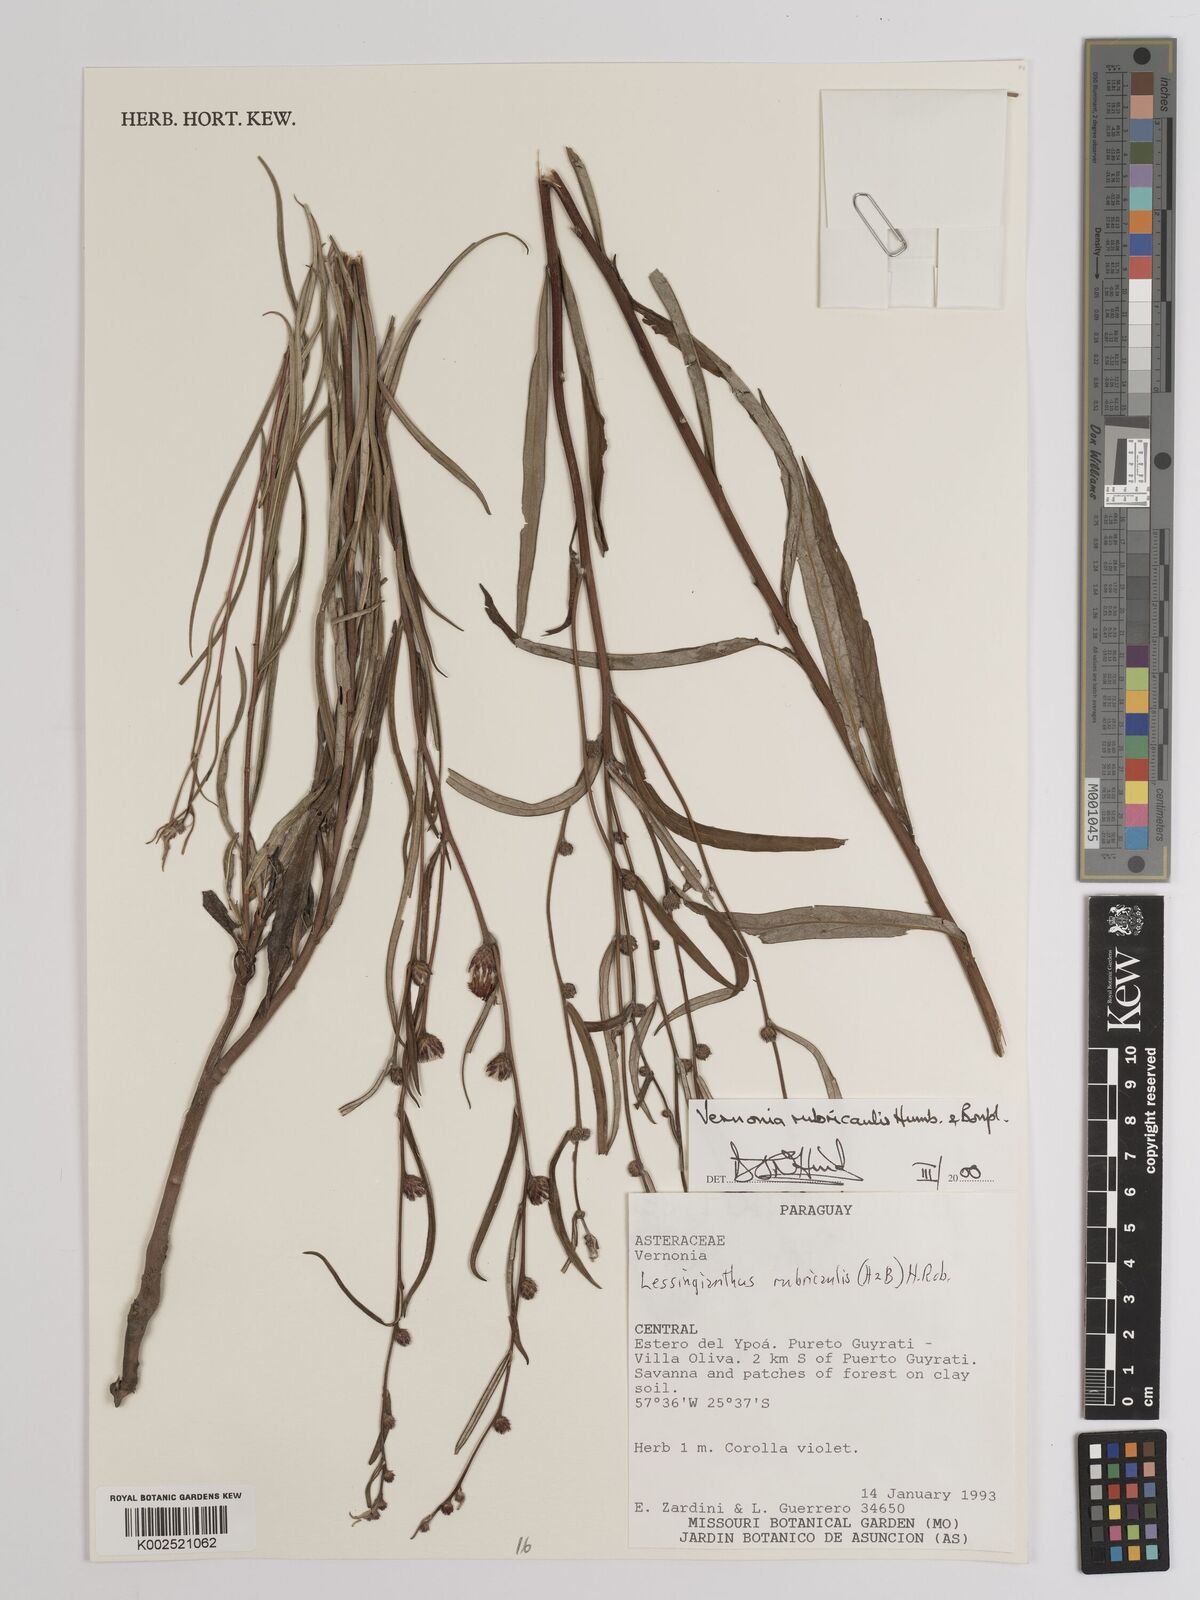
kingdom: Plantae
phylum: Tracheophyta
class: Magnoliopsida
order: Asterales
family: Asteraceae
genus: Lessingianthus
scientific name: Lessingianthus rubricaulis
